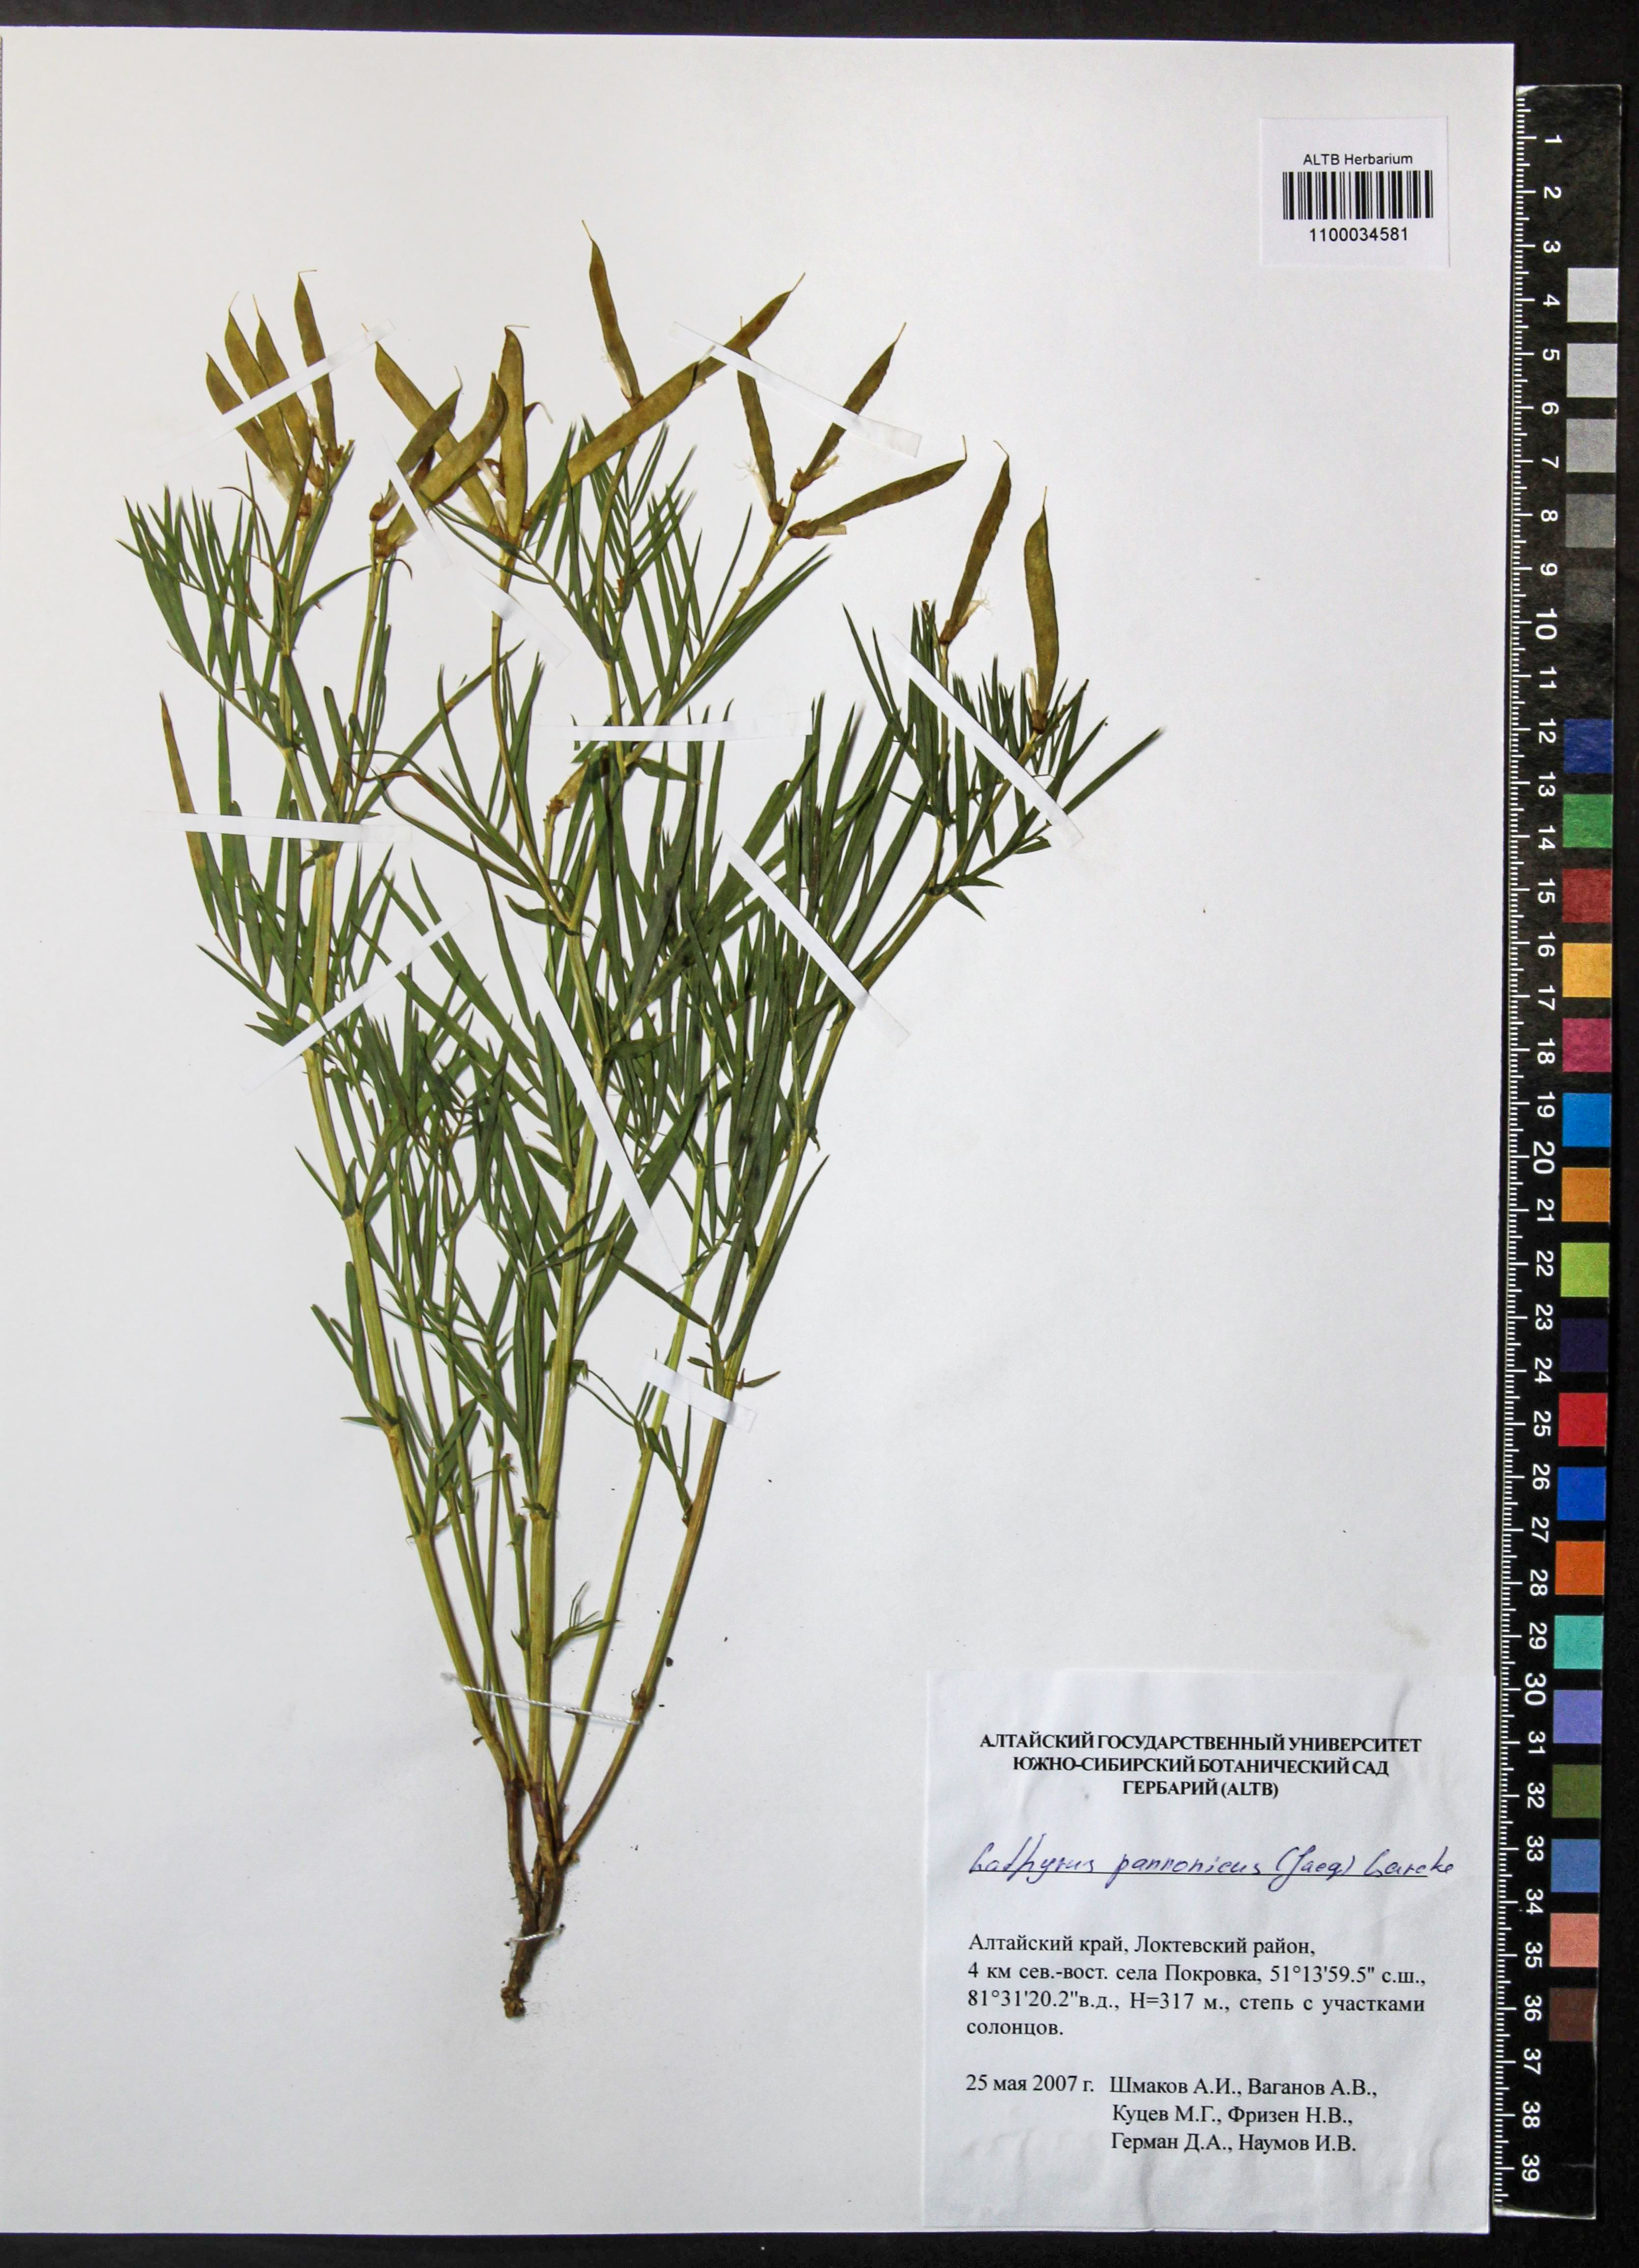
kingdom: Plantae
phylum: Tracheophyta
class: Magnoliopsida
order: Fabales
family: Fabaceae
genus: Lathyrus
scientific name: Lathyrus pannonicus
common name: Pea
